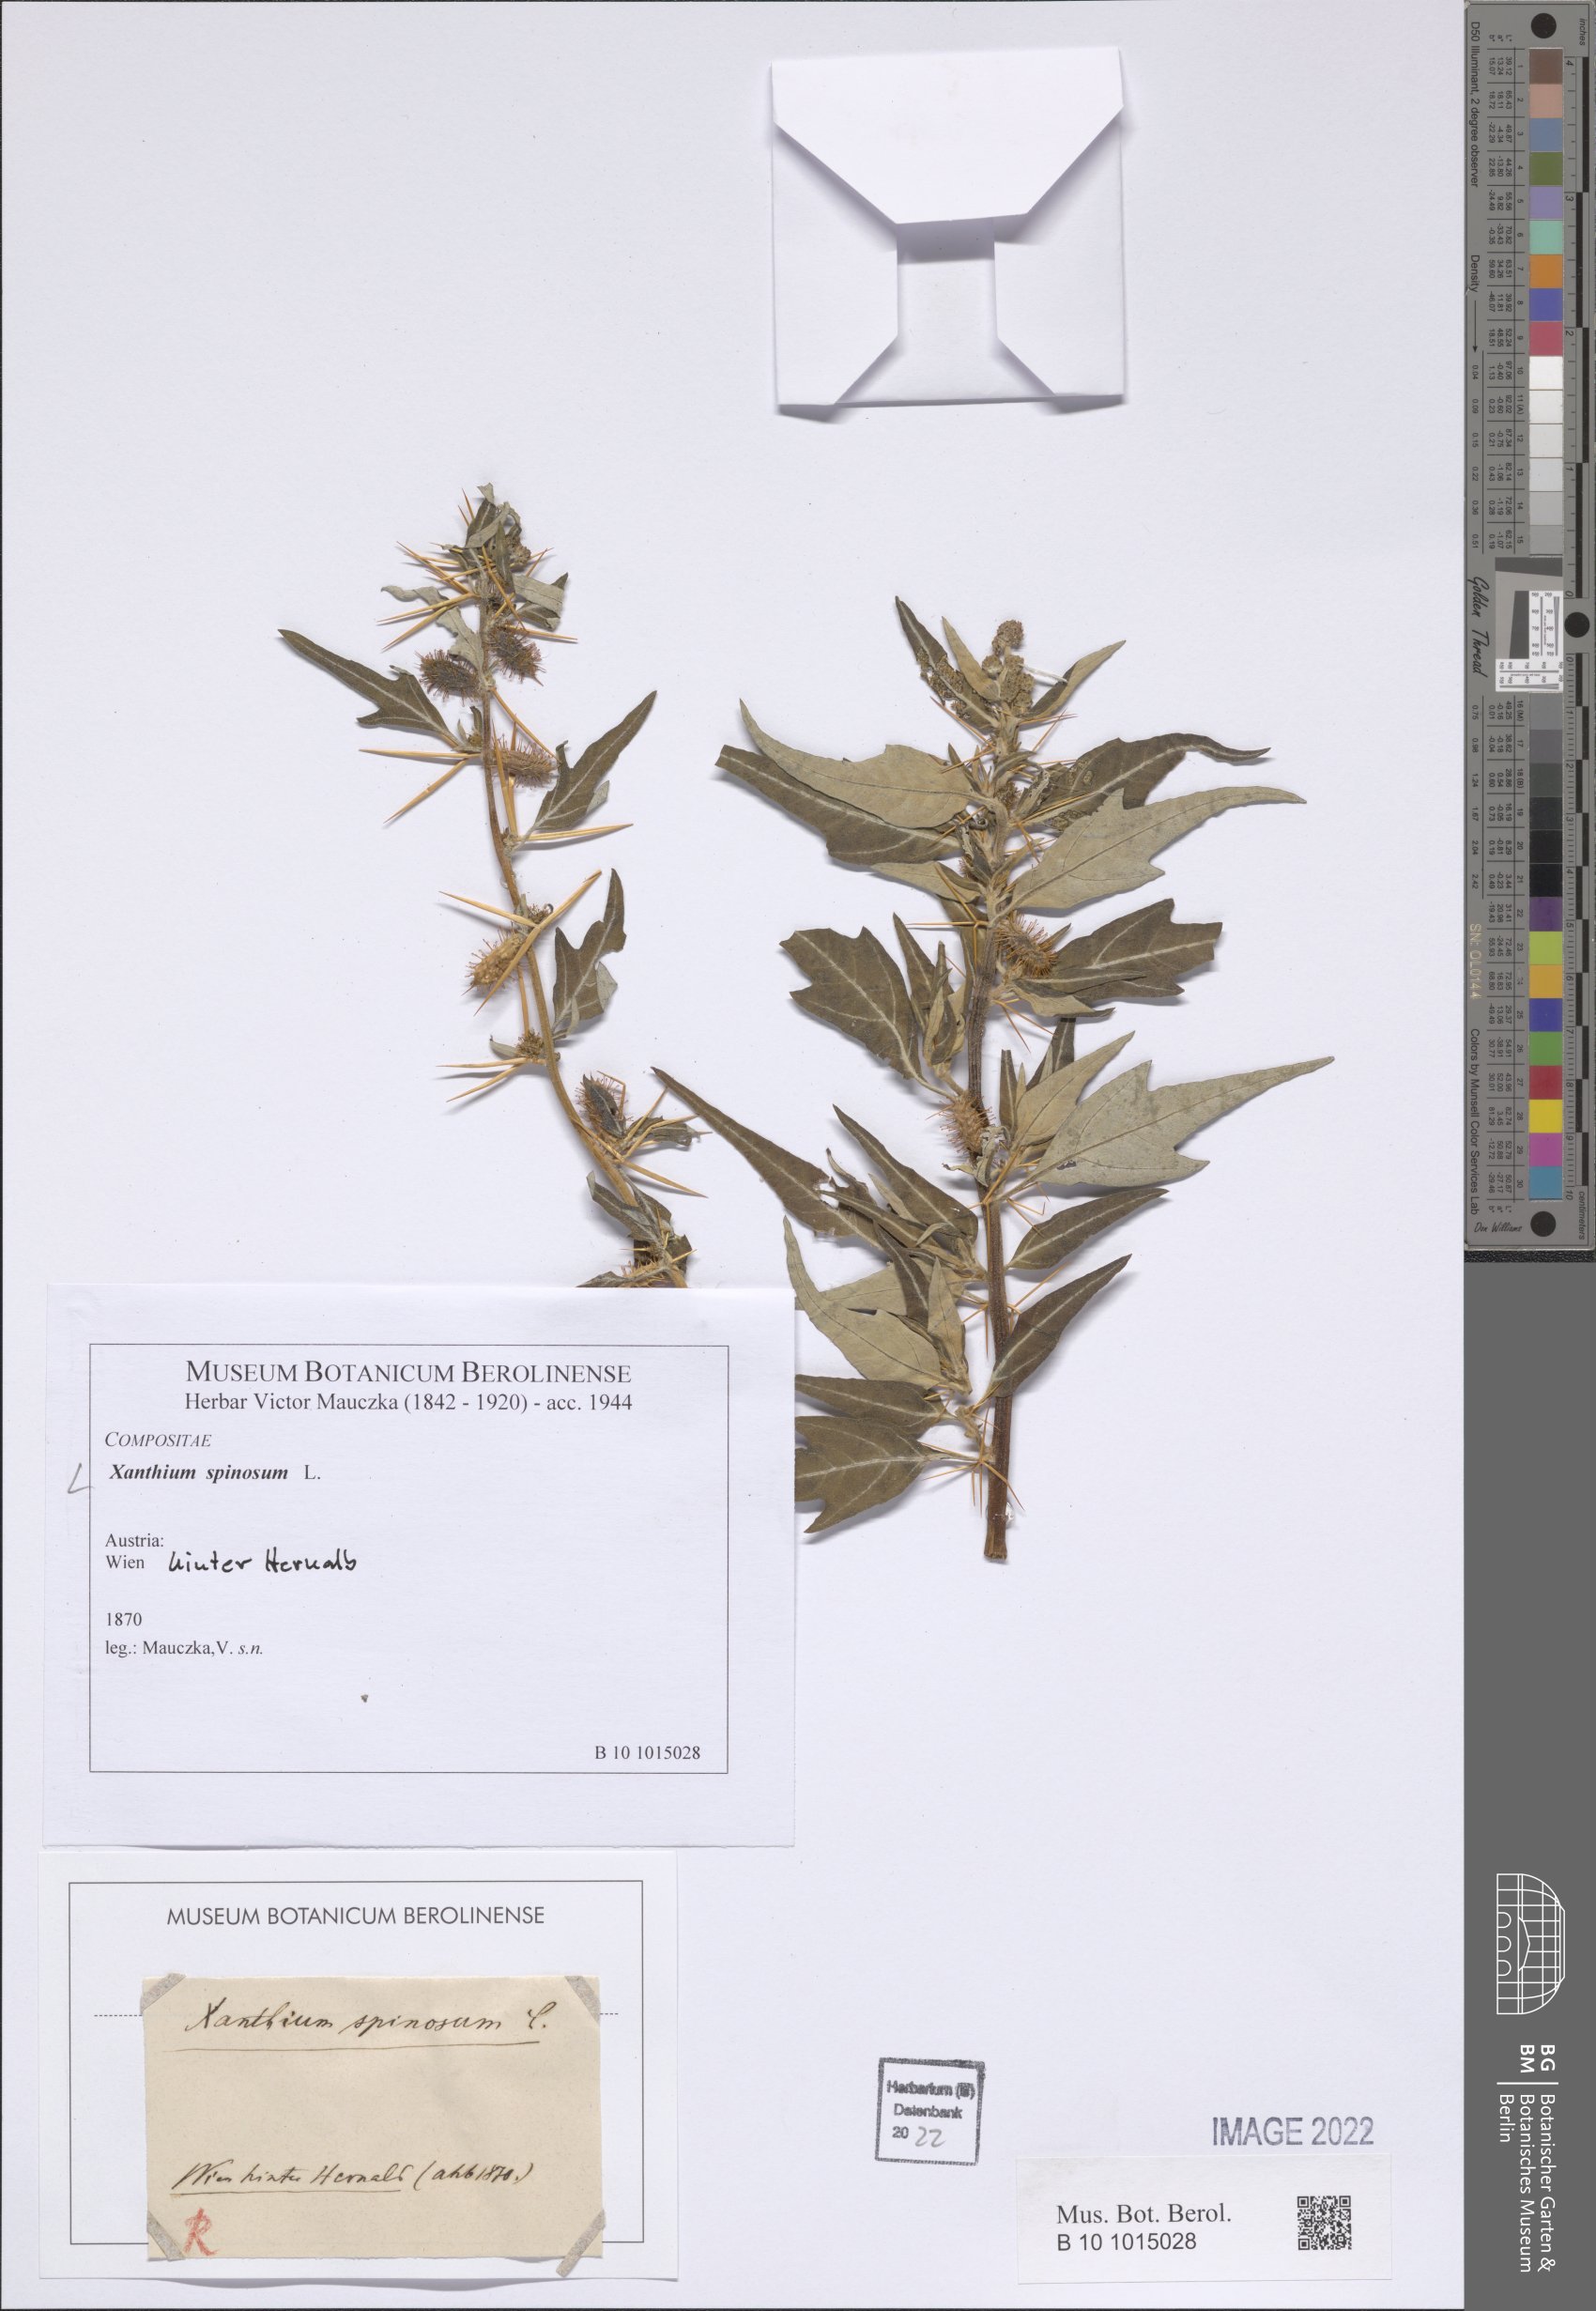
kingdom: Plantae
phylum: Tracheophyta
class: Magnoliopsida
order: Asterales
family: Asteraceae
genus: Xanthium
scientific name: Xanthium spinosum
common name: Spiny cocklebur
